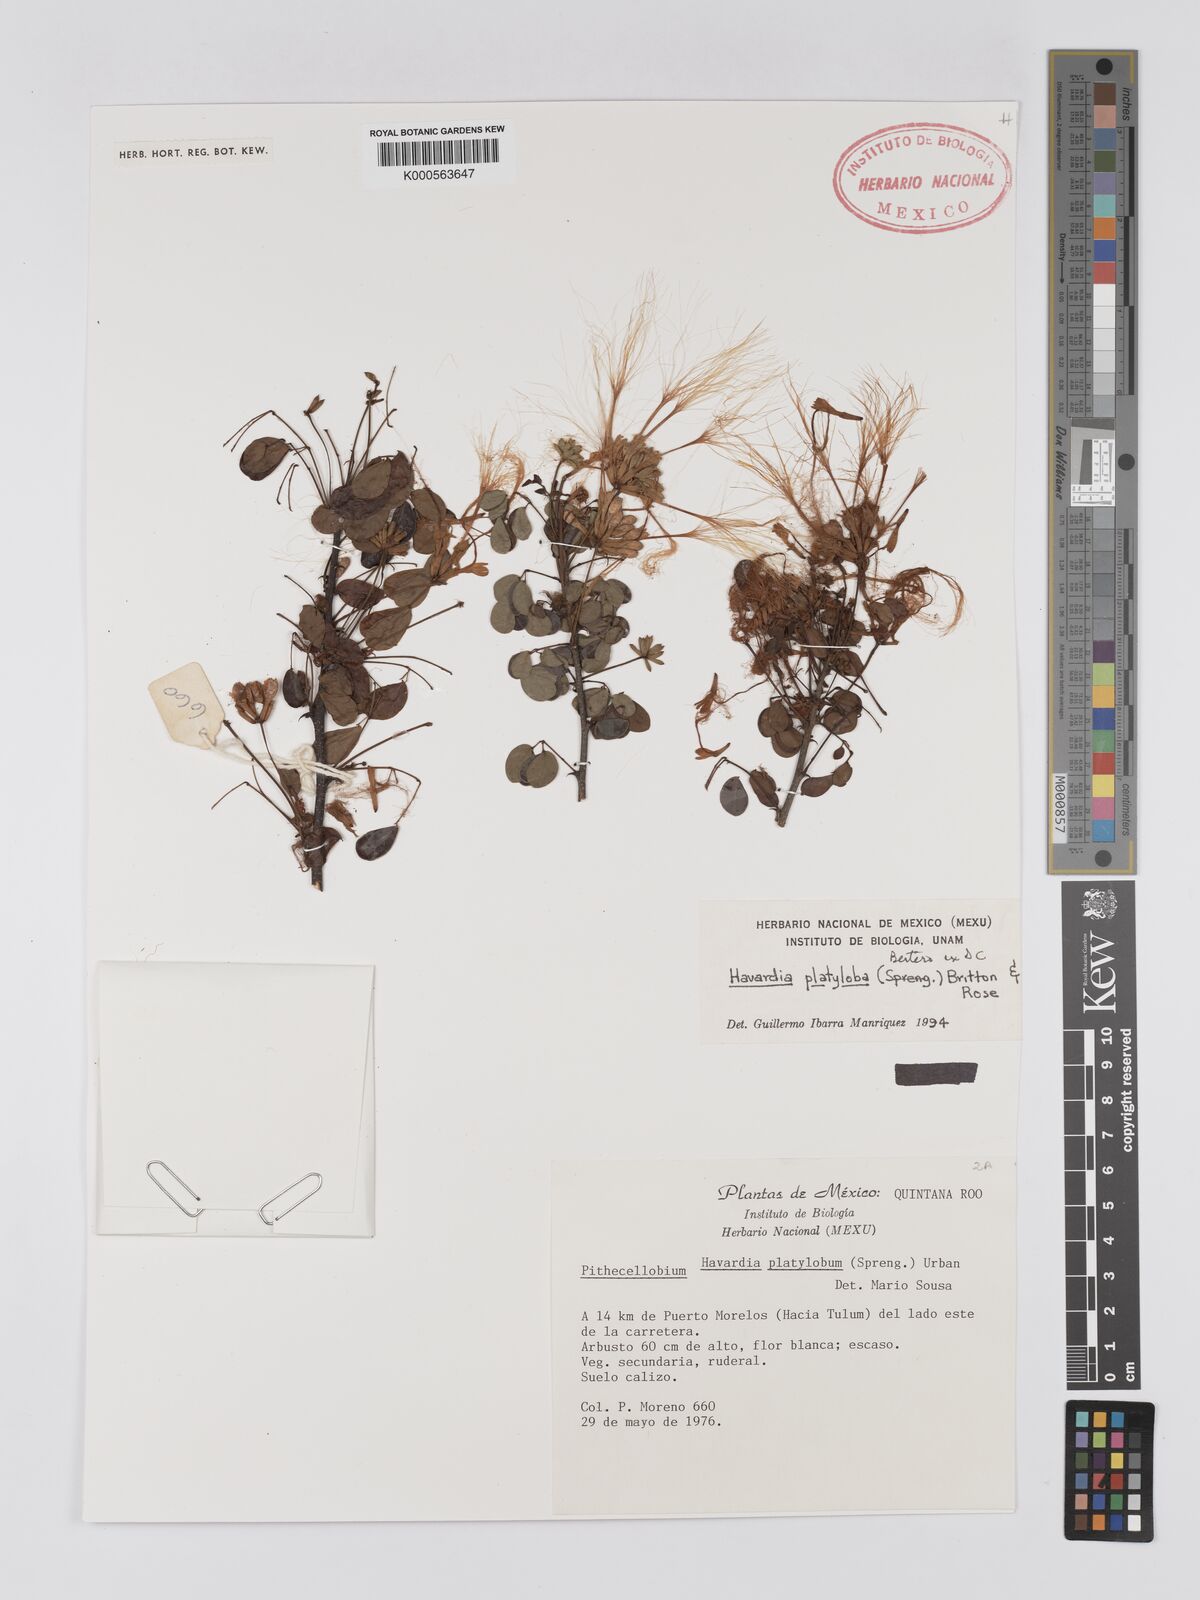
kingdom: Plantae
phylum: Tracheophyta
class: Magnoliopsida
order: Fabales
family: Fabaceae
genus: Havardia
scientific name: Havardia platyloba
